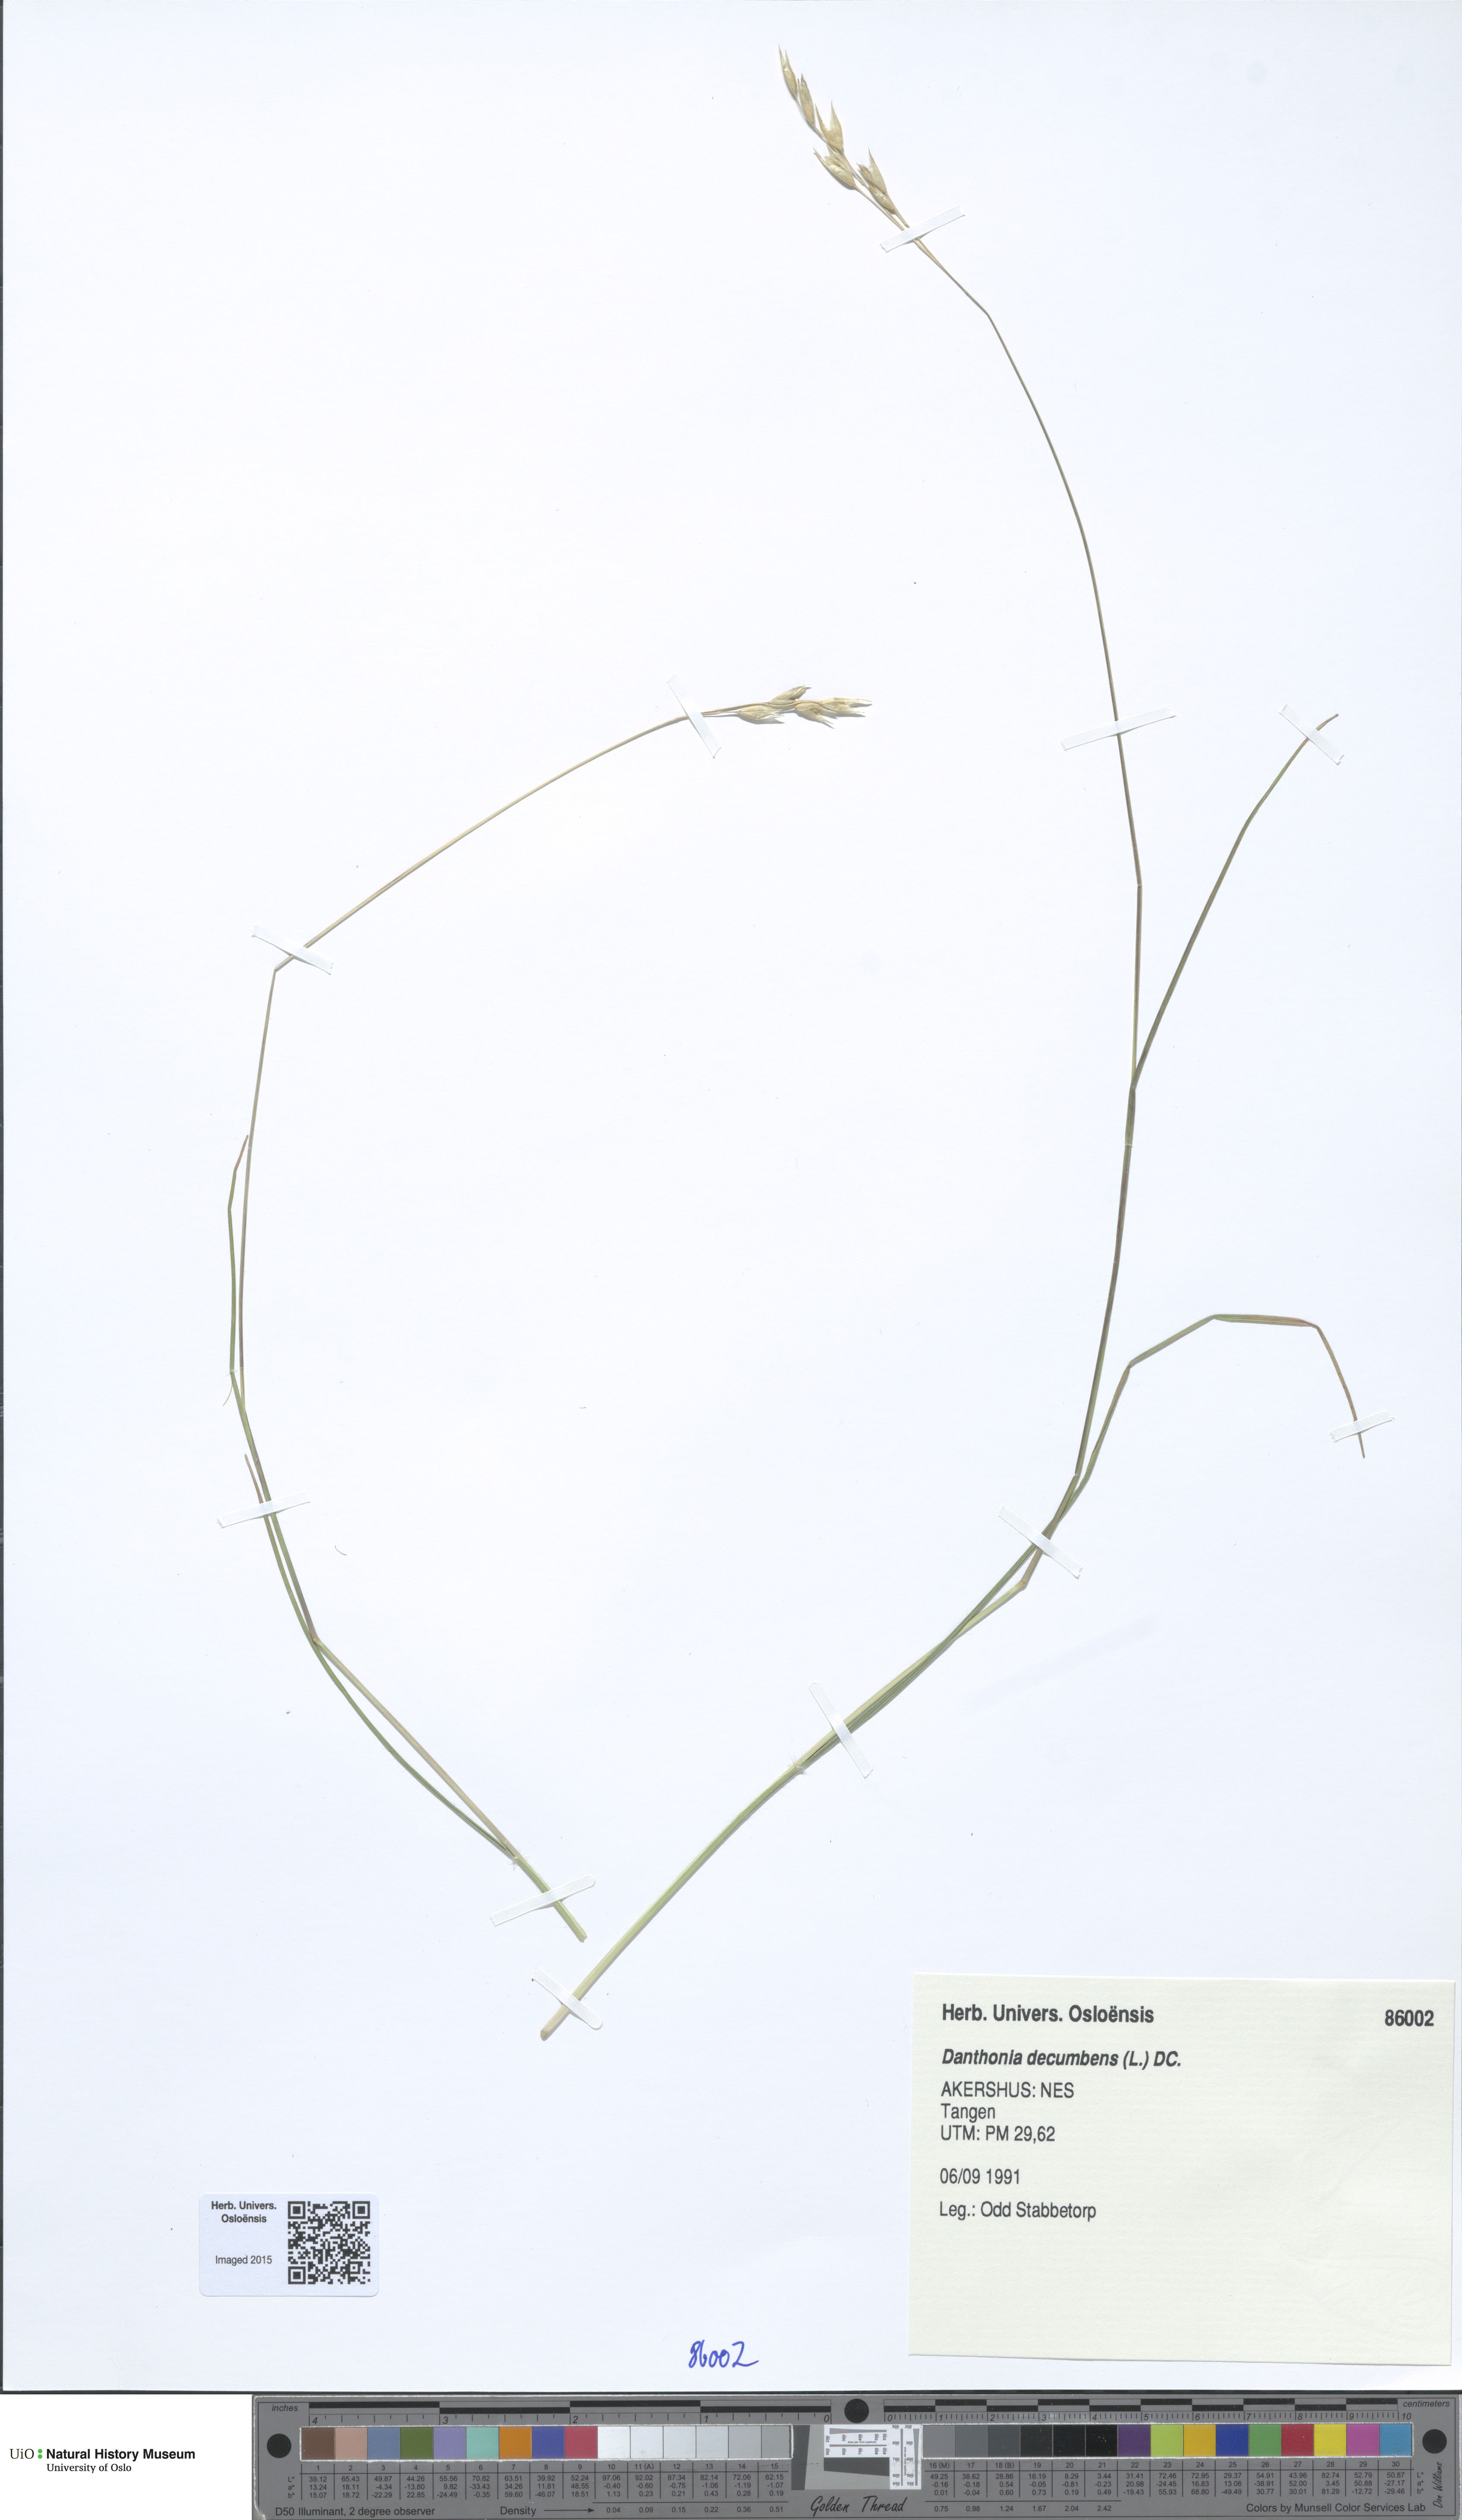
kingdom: Plantae
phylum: Tracheophyta
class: Liliopsida
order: Poales
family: Poaceae
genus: Danthonia
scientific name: Danthonia decumbens
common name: Common heathgrass
